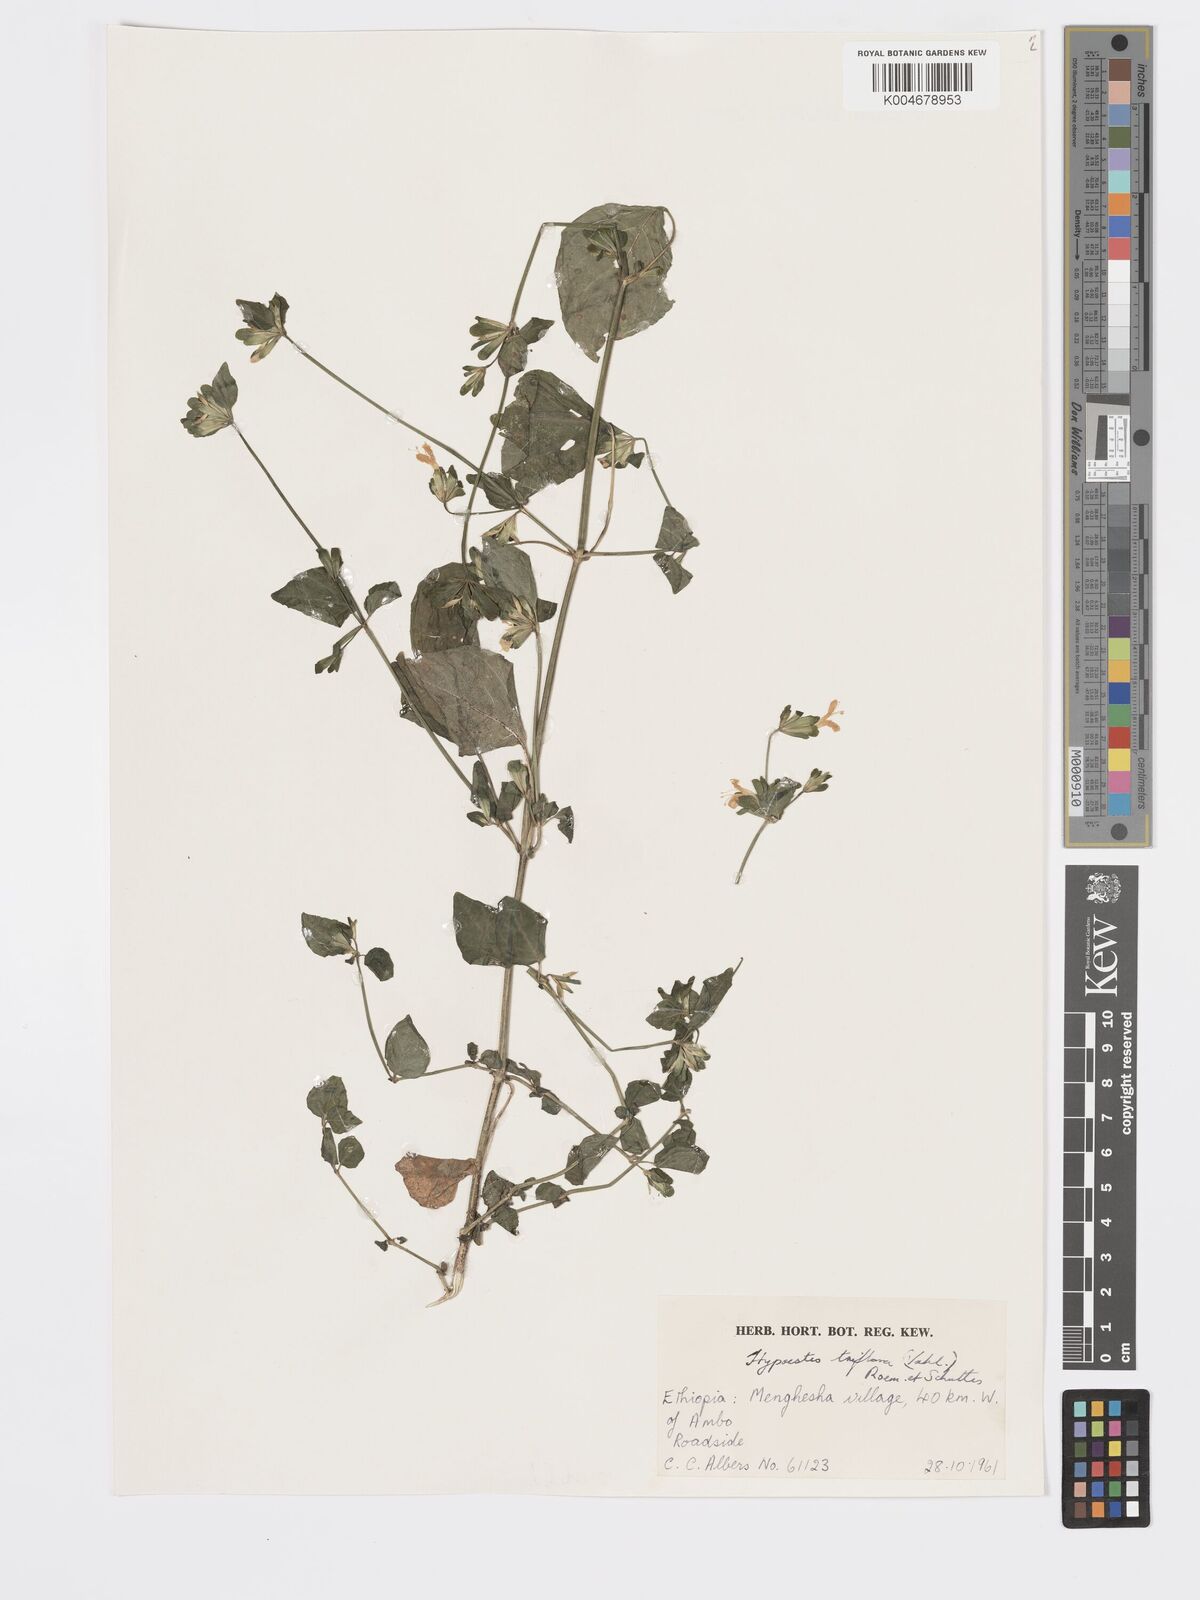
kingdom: Plantae
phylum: Tracheophyta
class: Magnoliopsida
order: Lamiales
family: Acanthaceae
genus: Hypoestes
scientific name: Hypoestes triflora
